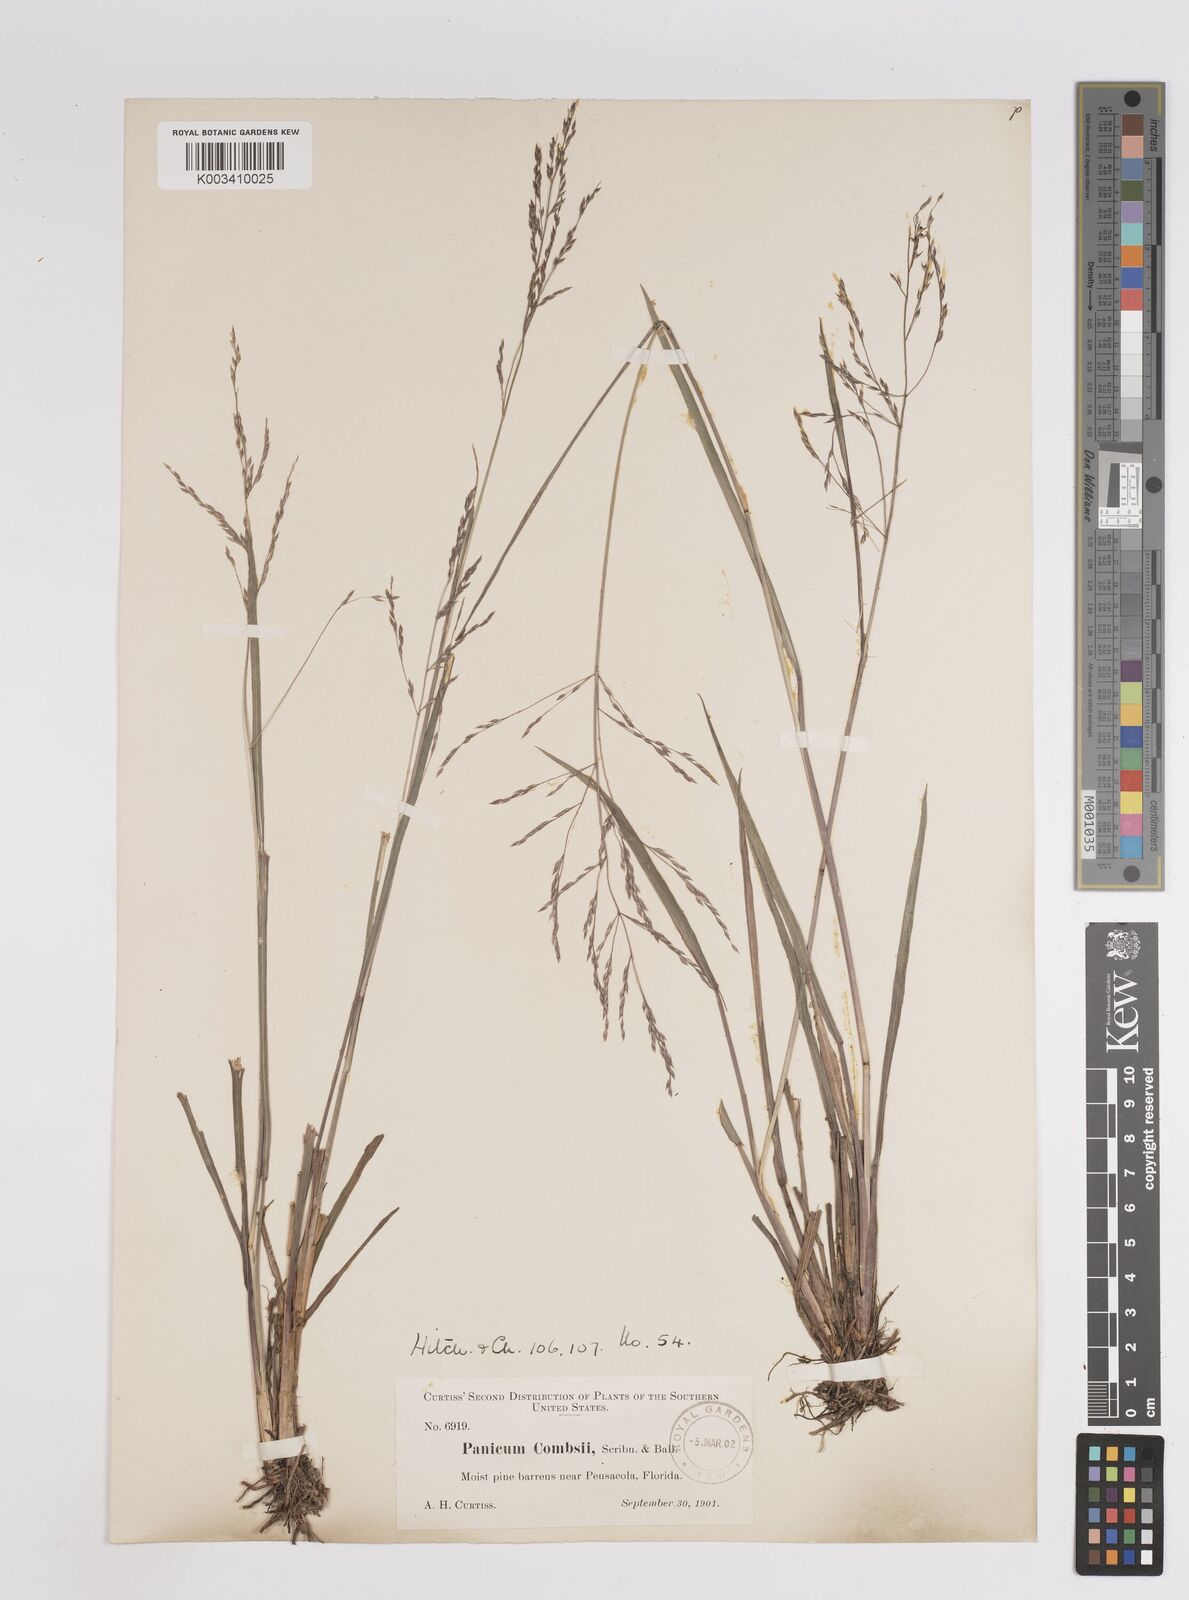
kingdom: Plantae
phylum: Tracheophyta
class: Liliopsida
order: Poales
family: Poaceae
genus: Coleataenia
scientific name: Coleataenia longifolia
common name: Long-leaved panicgrass
